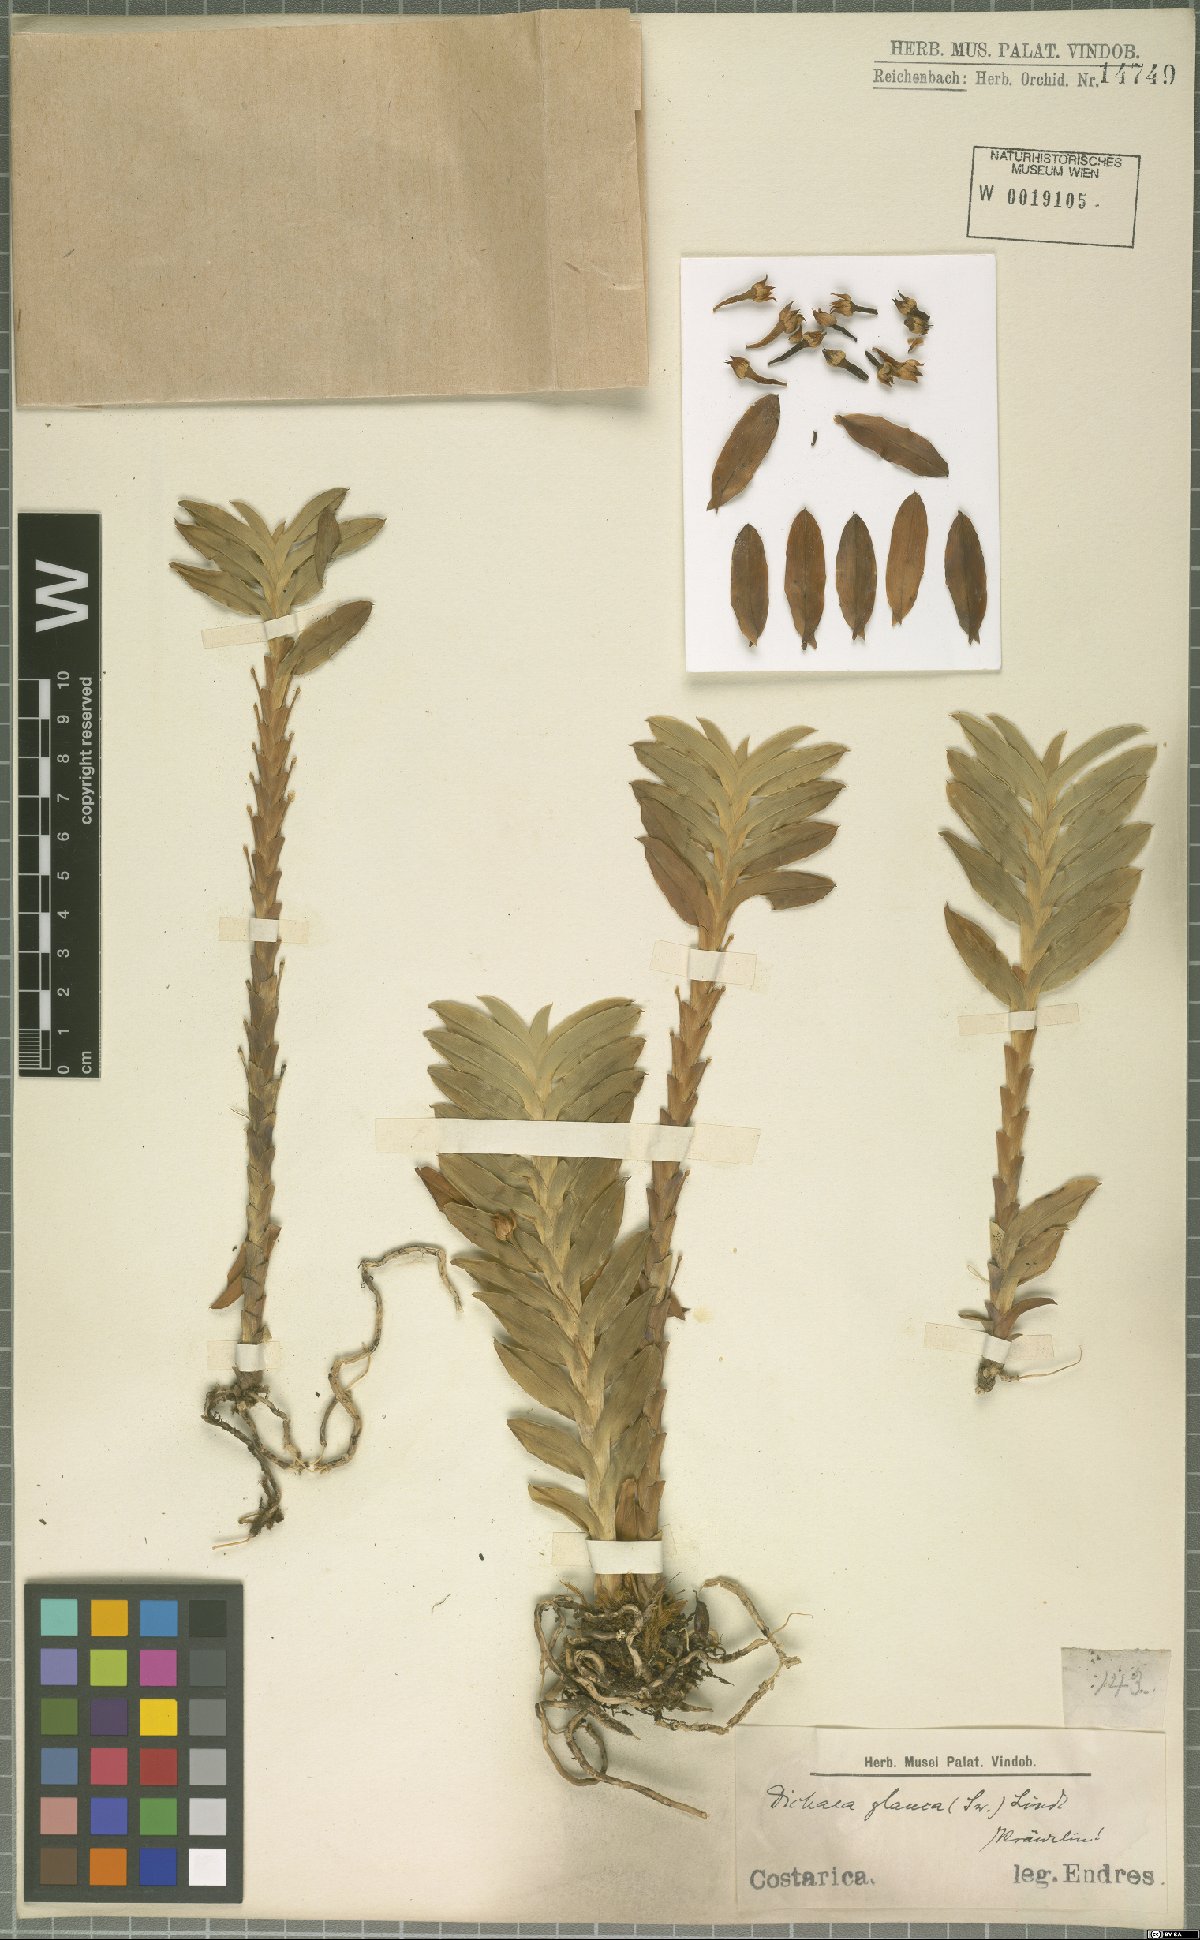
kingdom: Plantae
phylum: Tracheophyta
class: Liliopsida
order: Asparagales
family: Orchidaceae
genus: Dichaea
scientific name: Dichaea glauca
